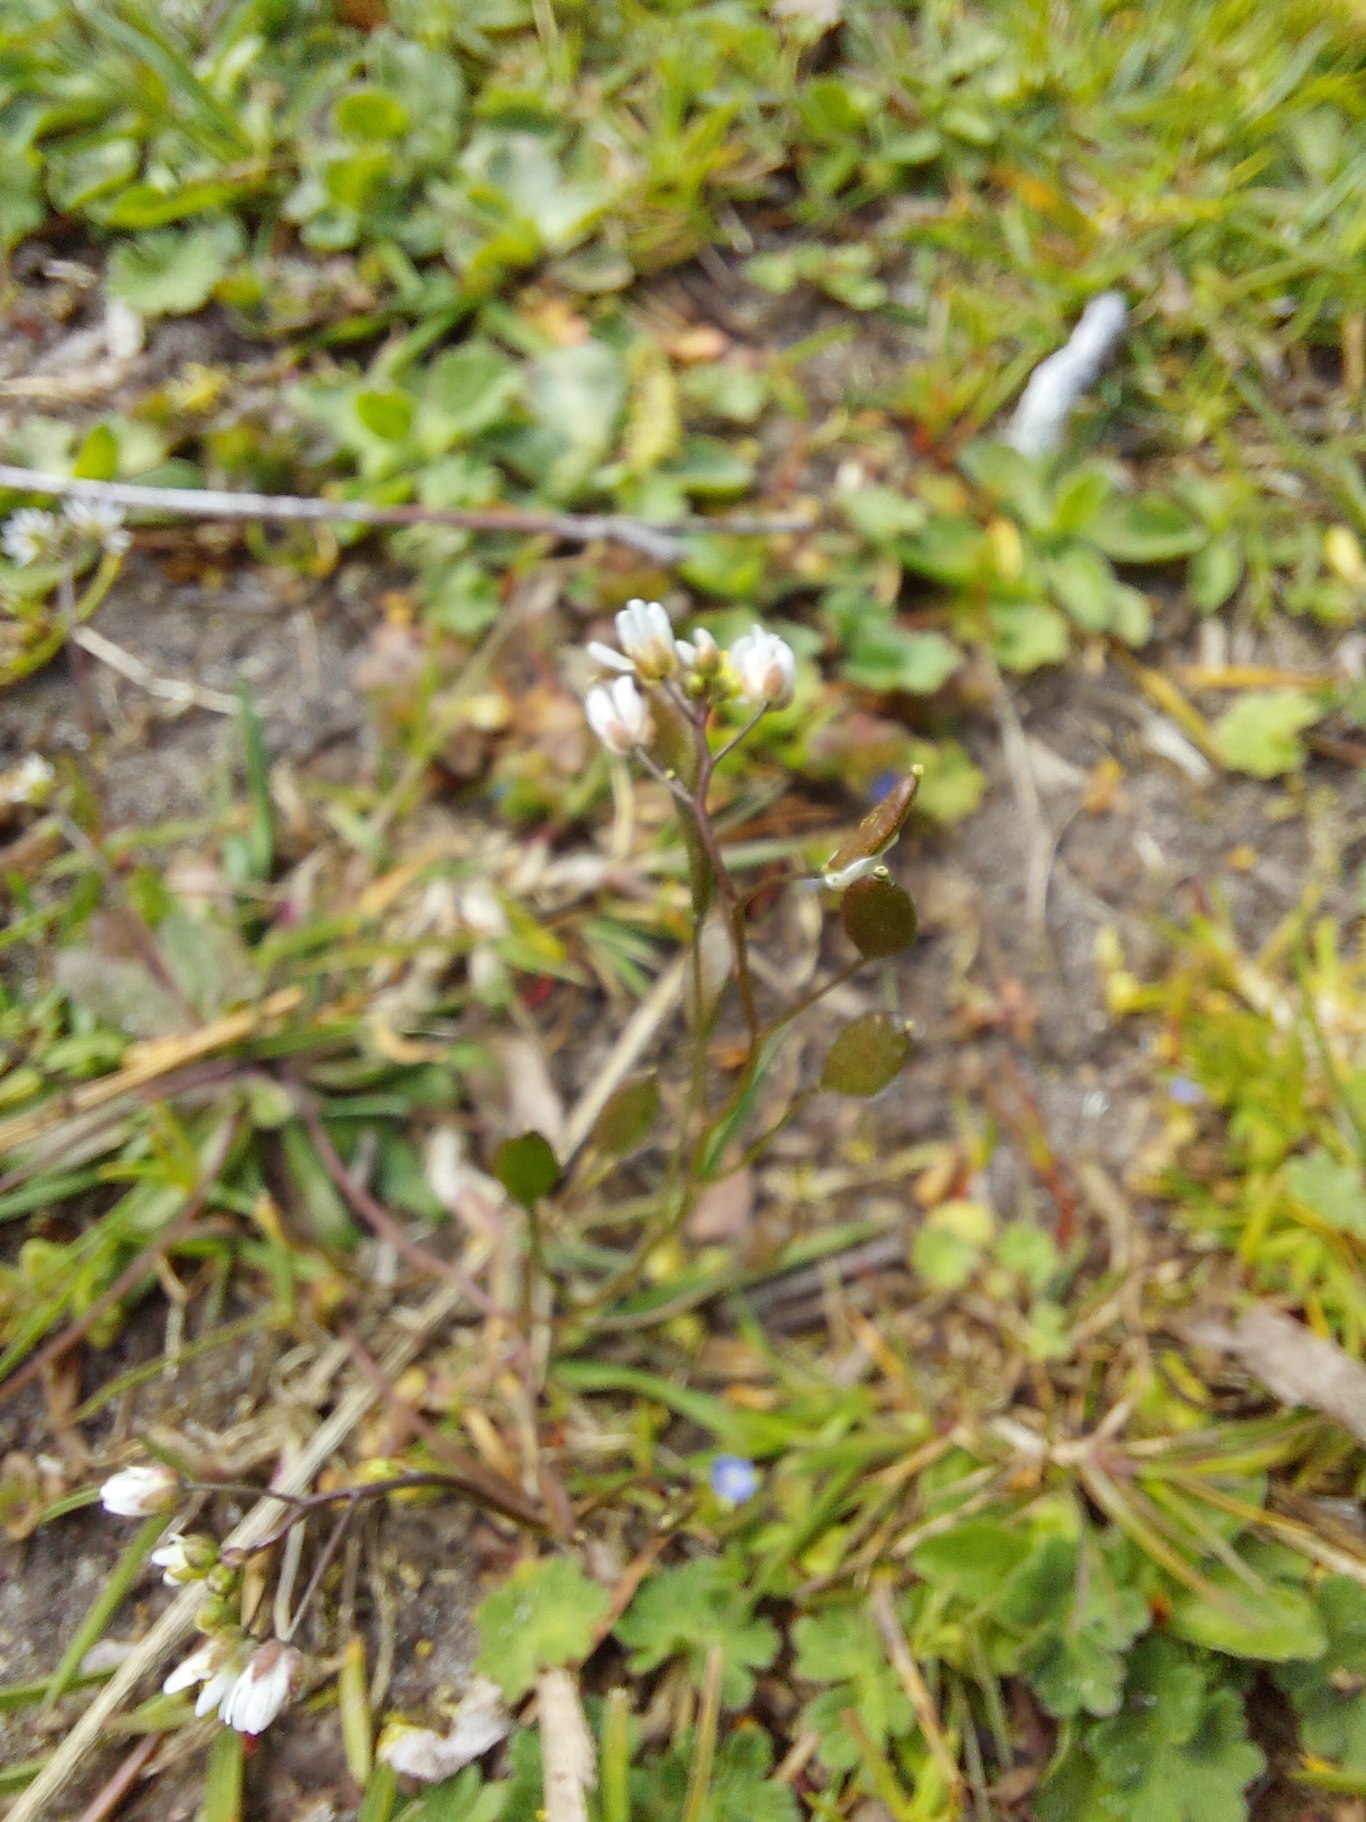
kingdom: Plantae
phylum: Tracheophyta
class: Magnoliopsida
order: Brassicales
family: Brassicaceae
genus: Draba
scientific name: Draba verna
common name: Vår-gæslingeblomst
